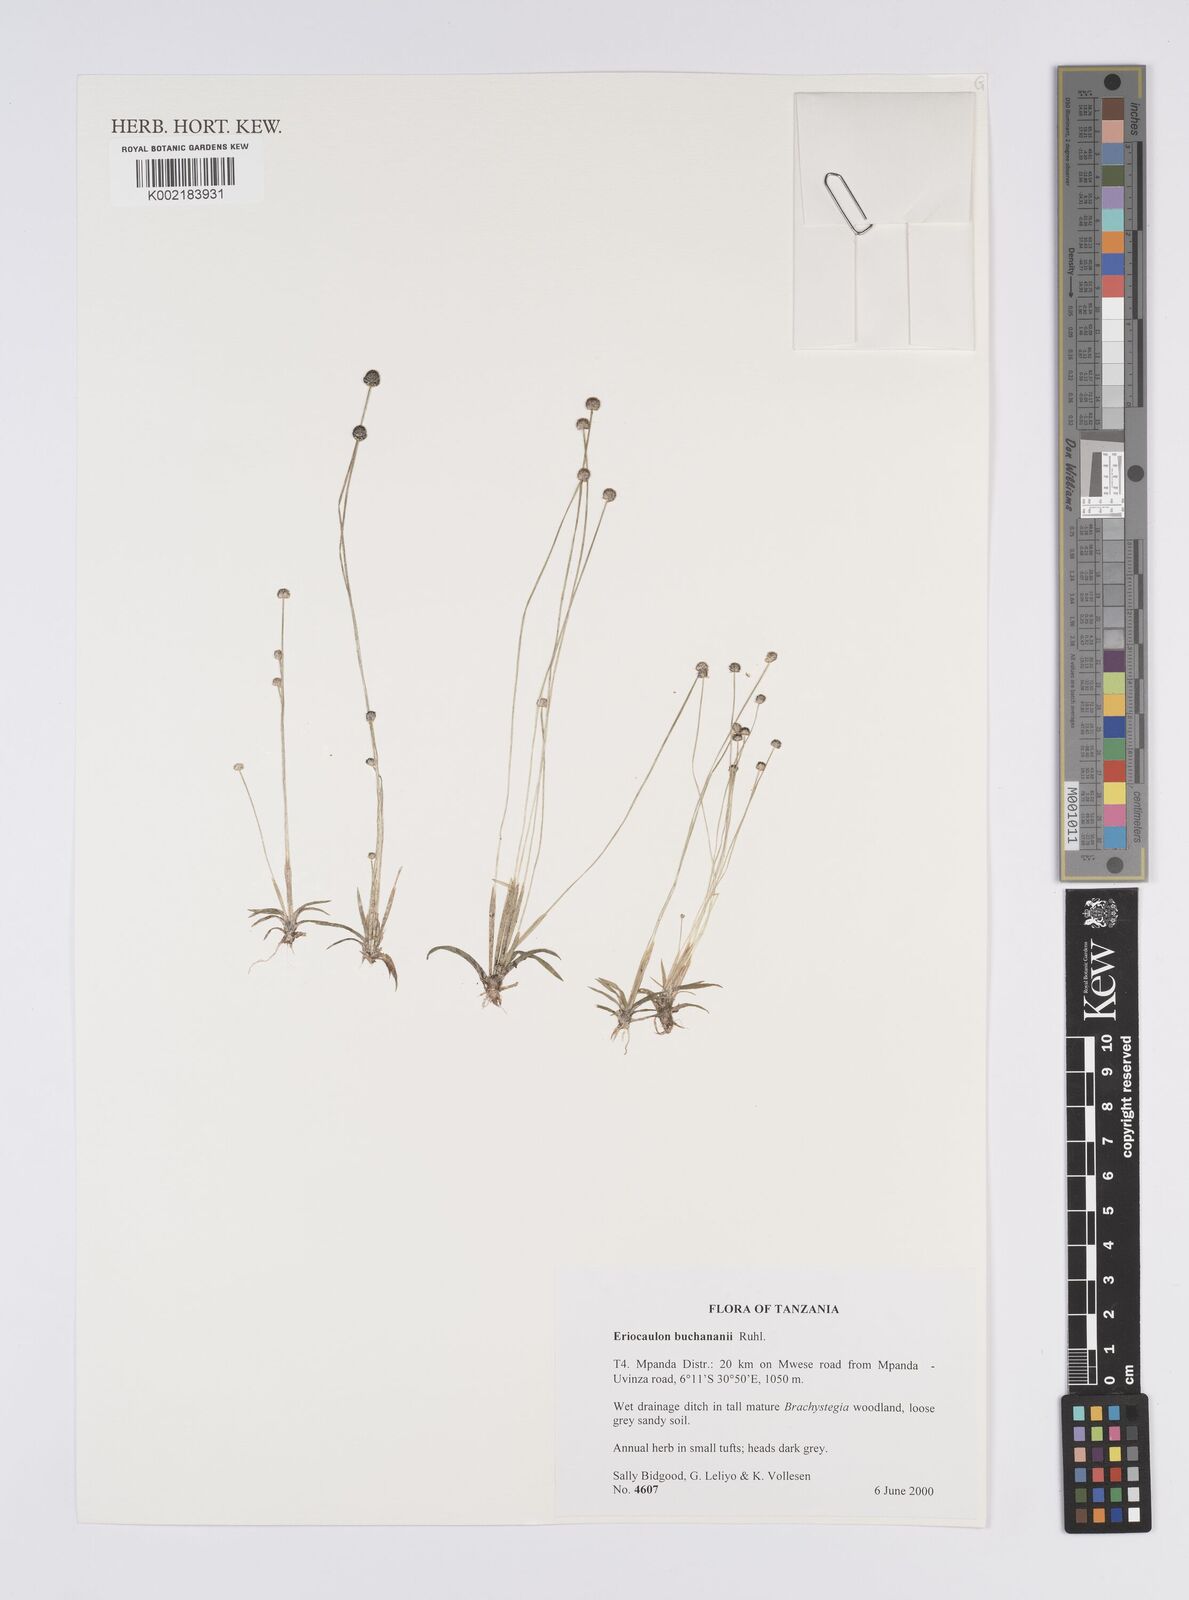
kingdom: Plantae
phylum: Tracheophyta
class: Liliopsida
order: Poales
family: Eriocaulaceae
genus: Eriocaulon
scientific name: Eriocaulon buchananii
